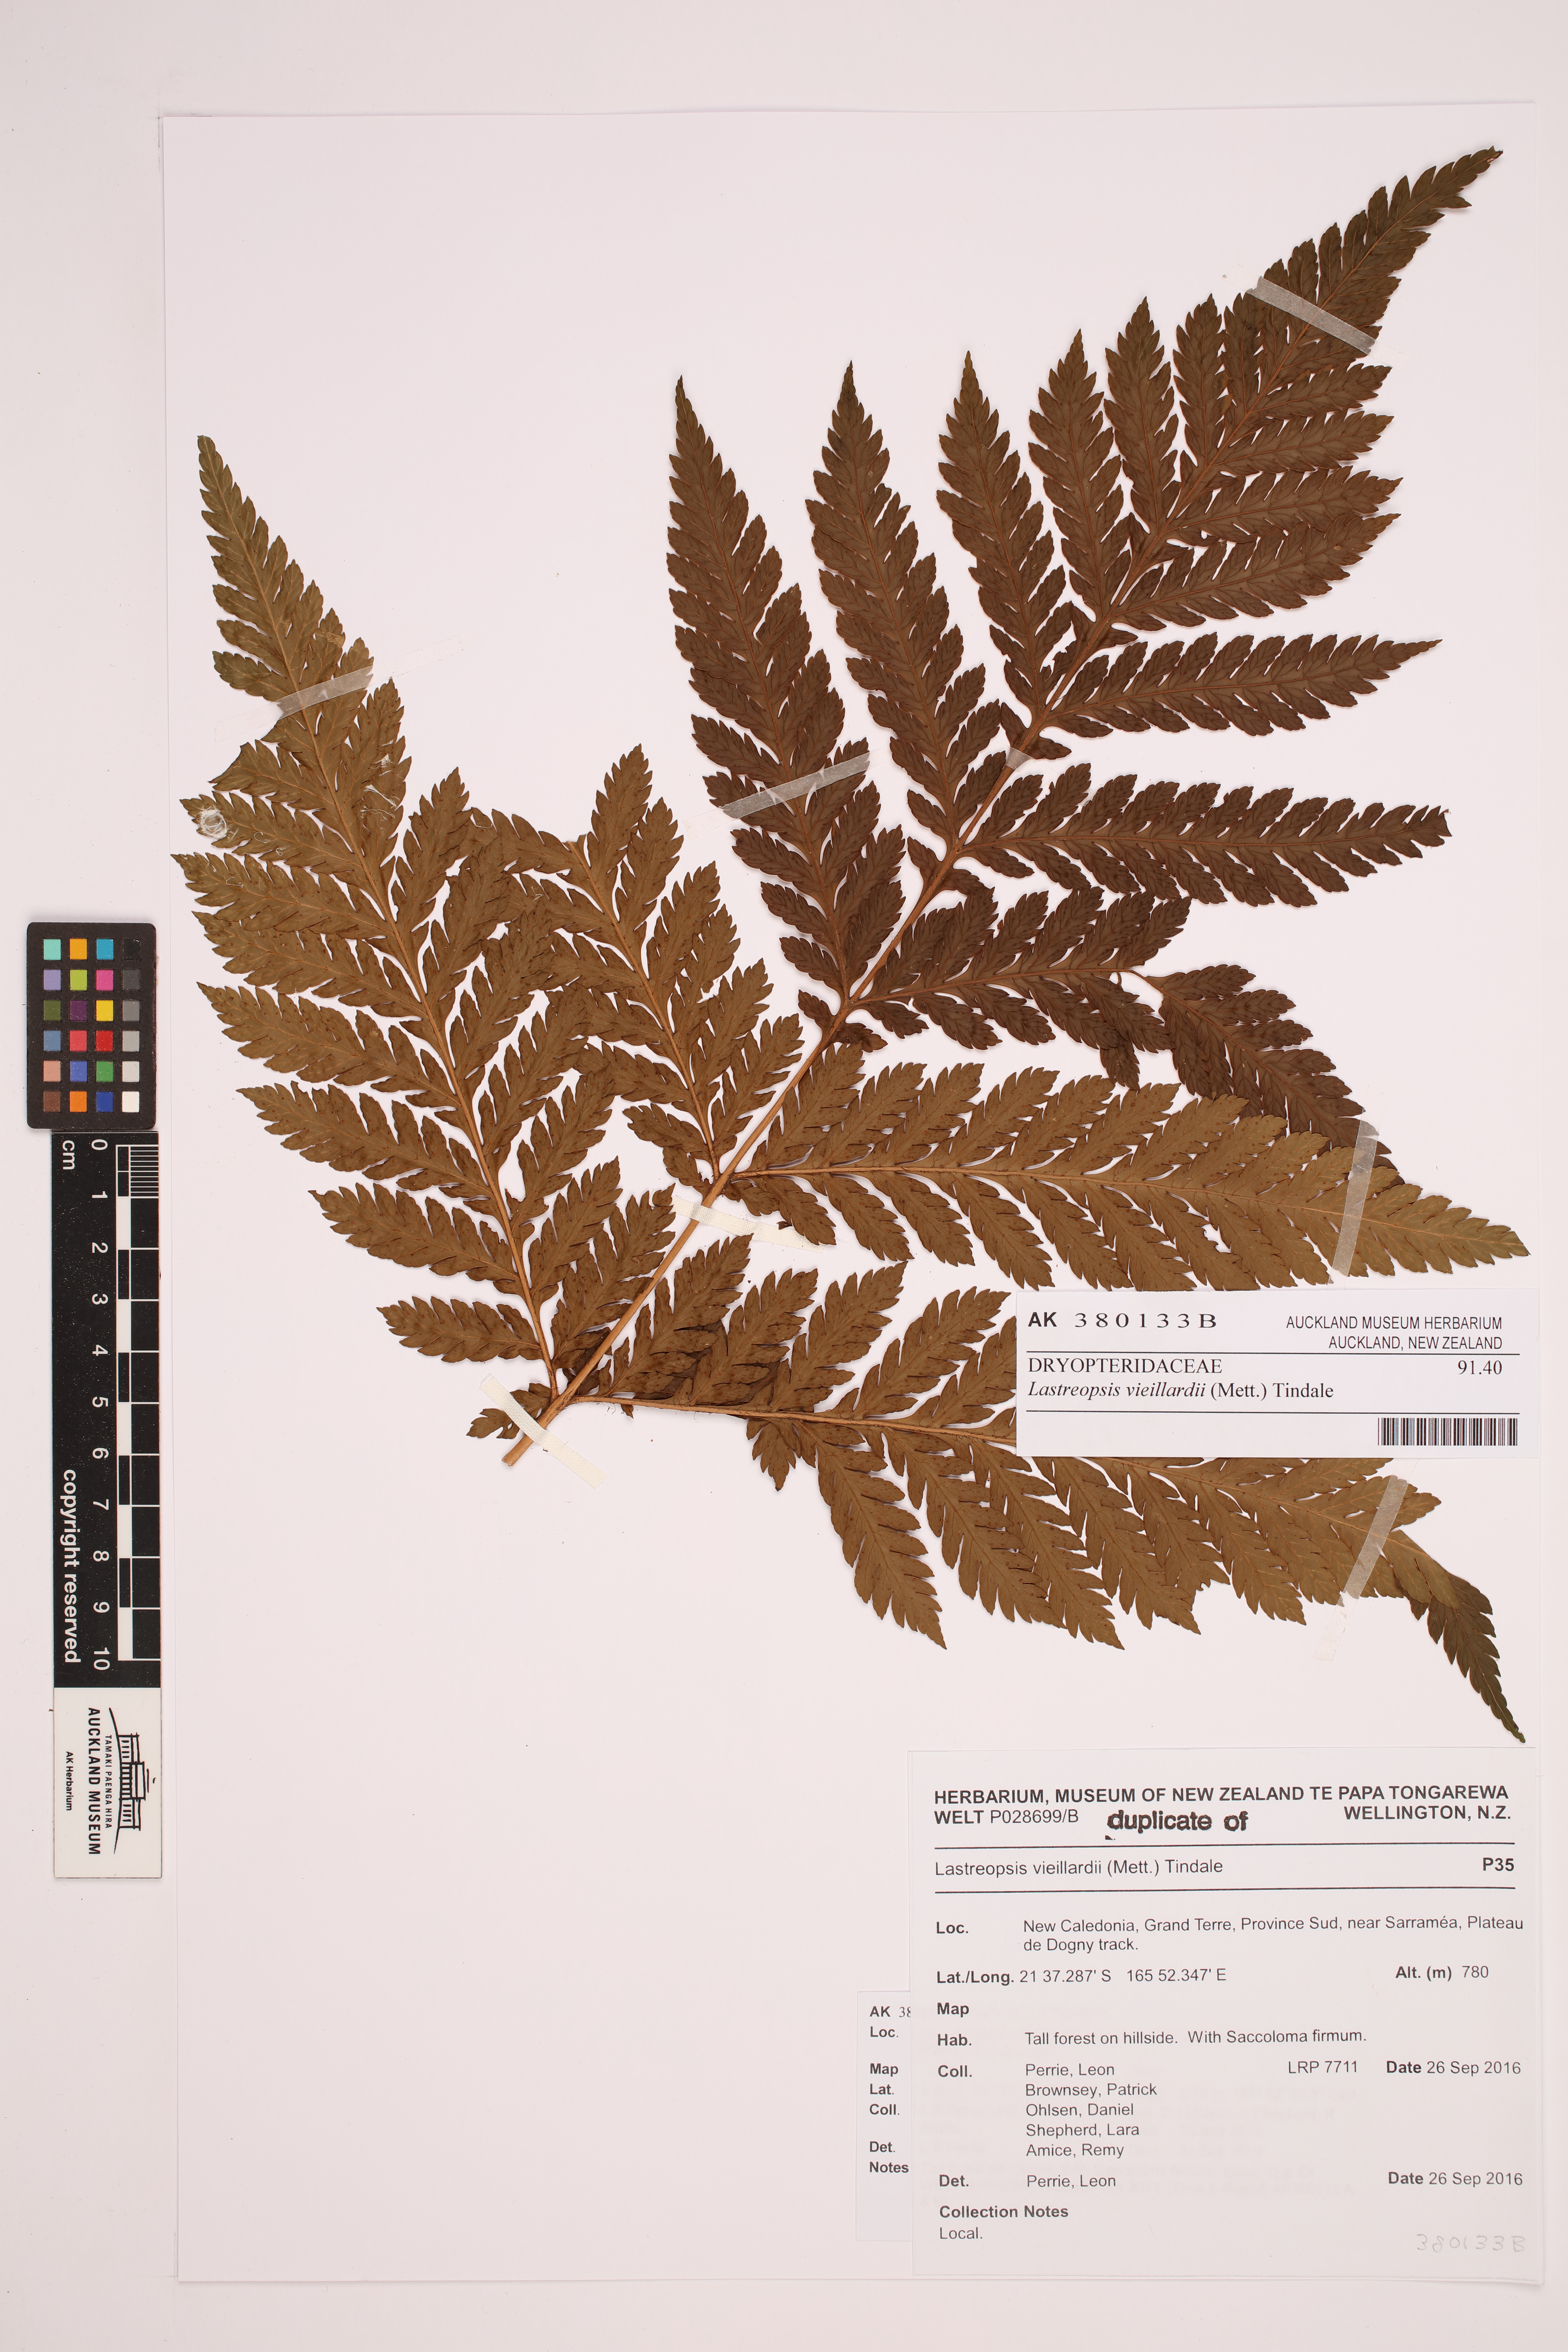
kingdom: Plantae
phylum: Tracheophyta
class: Polypodiopsida
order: Polypodiales
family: Dryopteridaceae
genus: Lastreopsis
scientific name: Lastreopsis vieillardii
